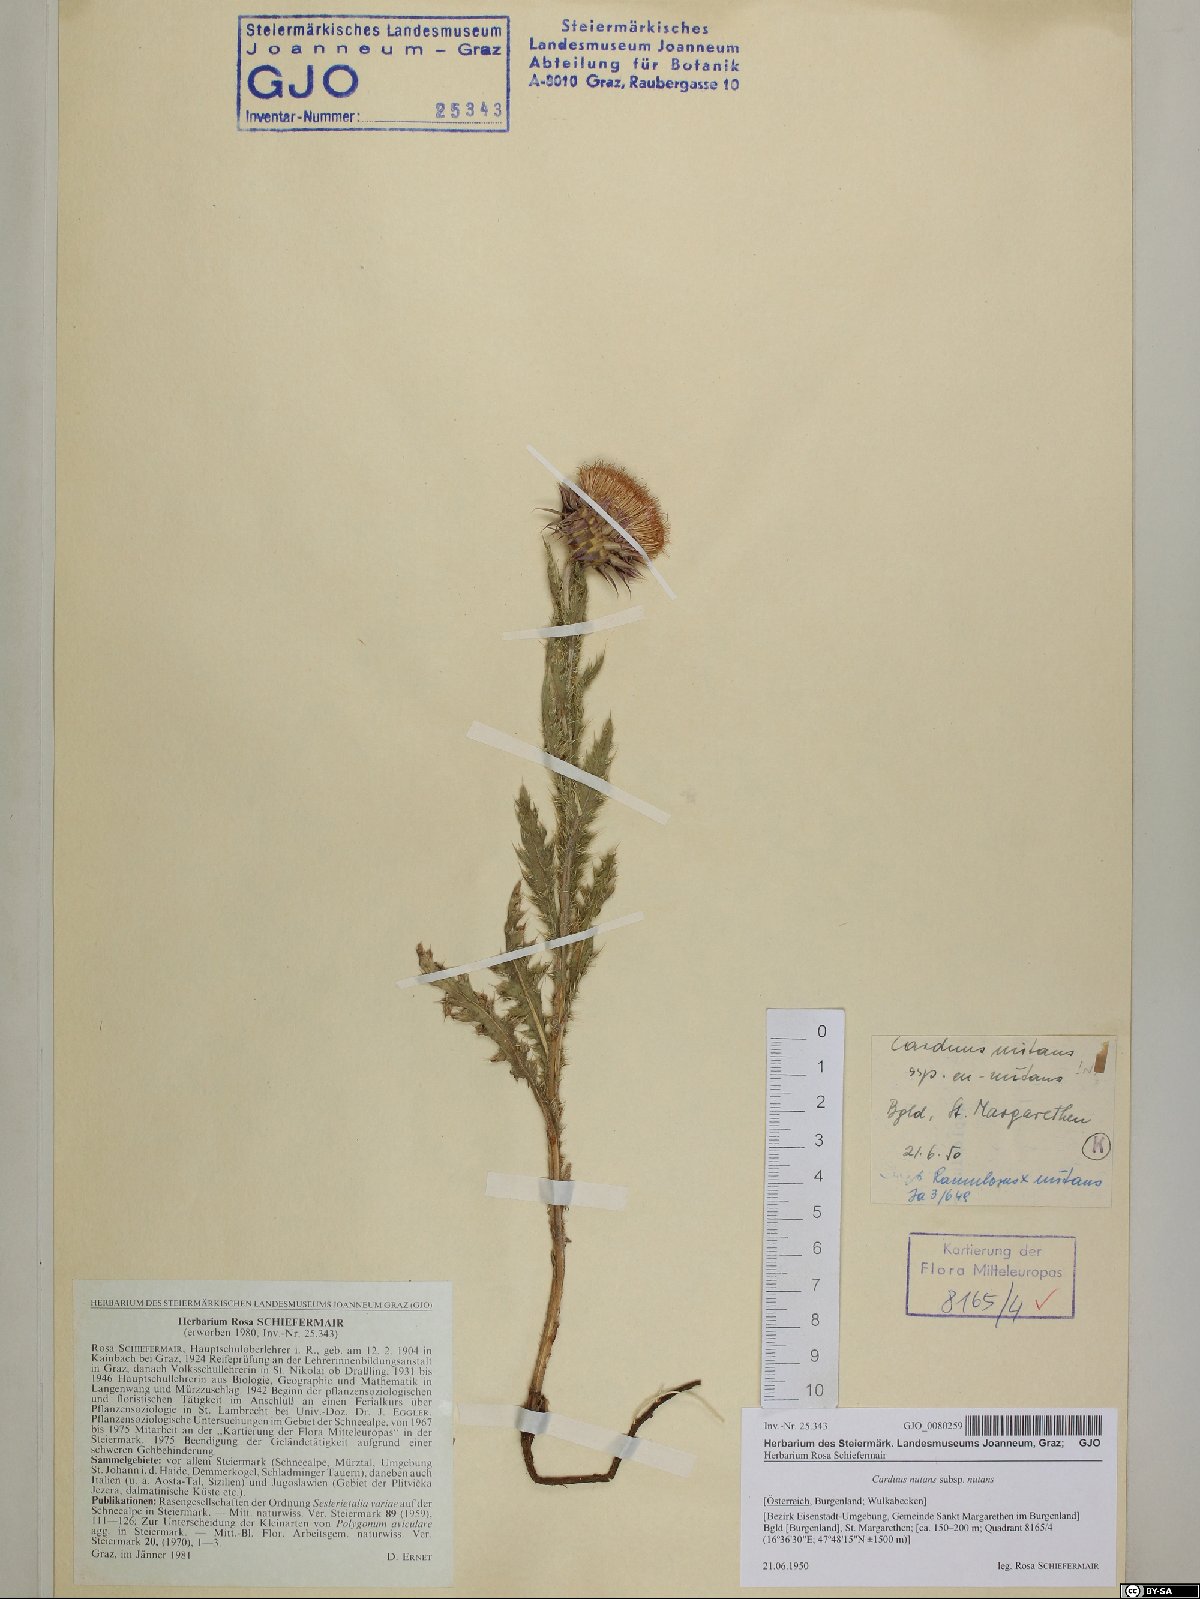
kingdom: Plantae
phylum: Tracheophyta
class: Magnoliopsida
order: Asterales
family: Asteraceae
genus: Carduus
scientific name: Carduus nutans
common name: Musk thistle
